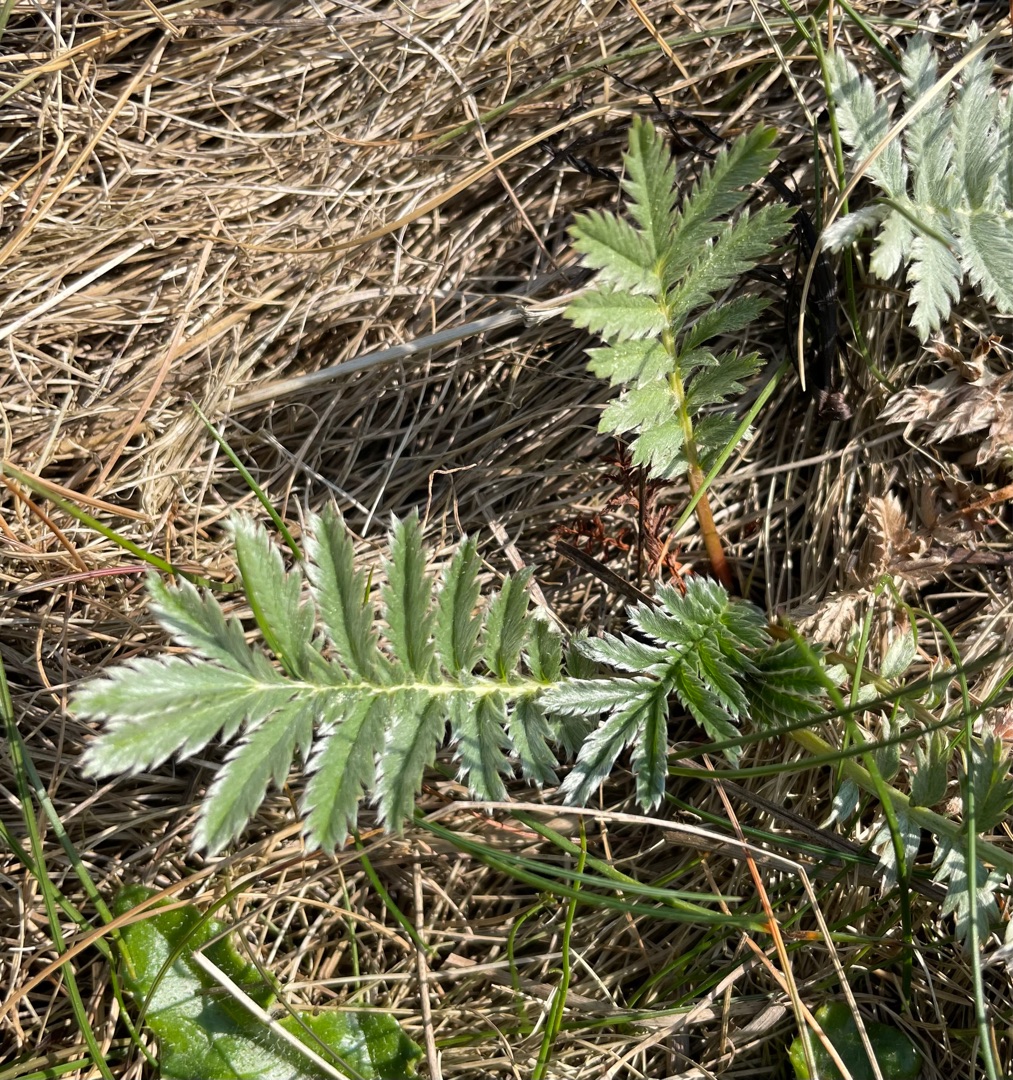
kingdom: Plantae
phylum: Tracheophyta
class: Magnoliopsida
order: Rosales
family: Rosaceae
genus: Argentina
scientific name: Argentina anserina
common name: Gåsepotentil
